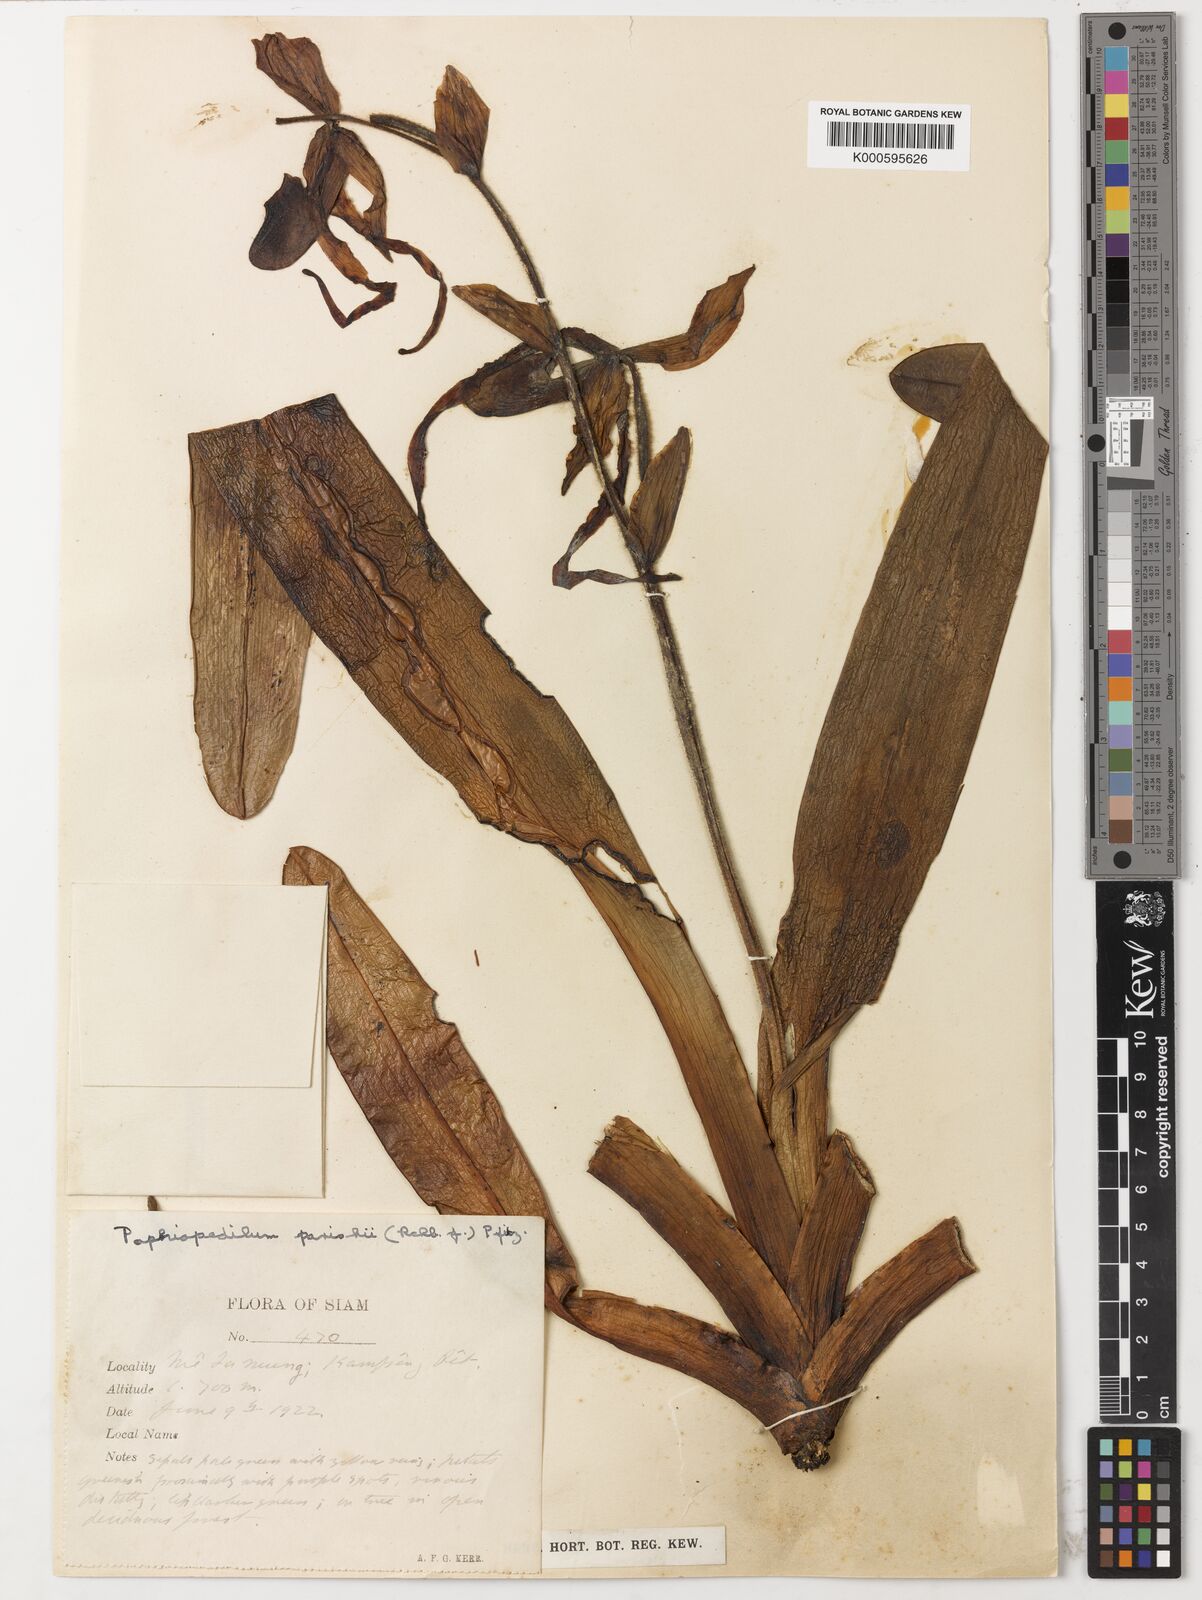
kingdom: Plantae
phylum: Tracheophyta
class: Liliopsida
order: Asparagales
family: Orchidaceae
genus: Paphiopedilum
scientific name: Paphiopedilum
